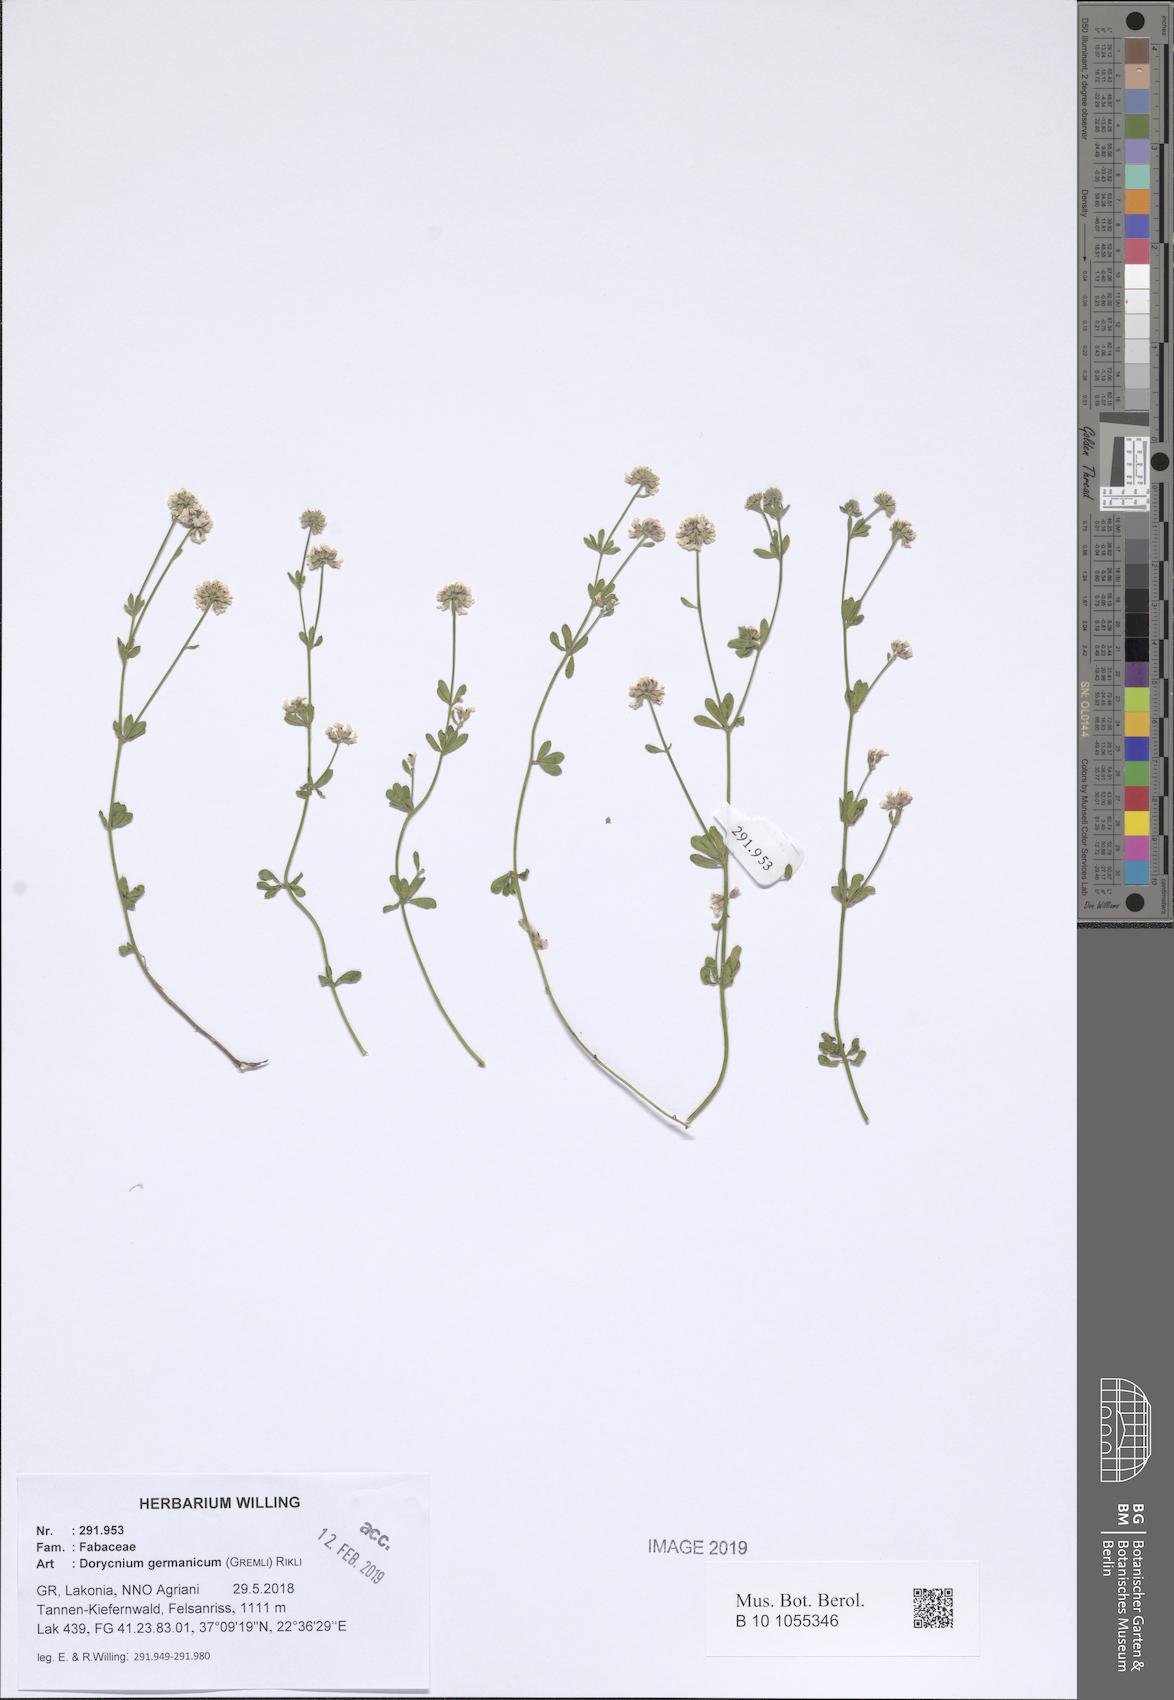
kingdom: Plantae
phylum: Tracheophyta
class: Magnoliopsida
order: Fabales
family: Fabaceae
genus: Lotus
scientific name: Lotus germanicus
